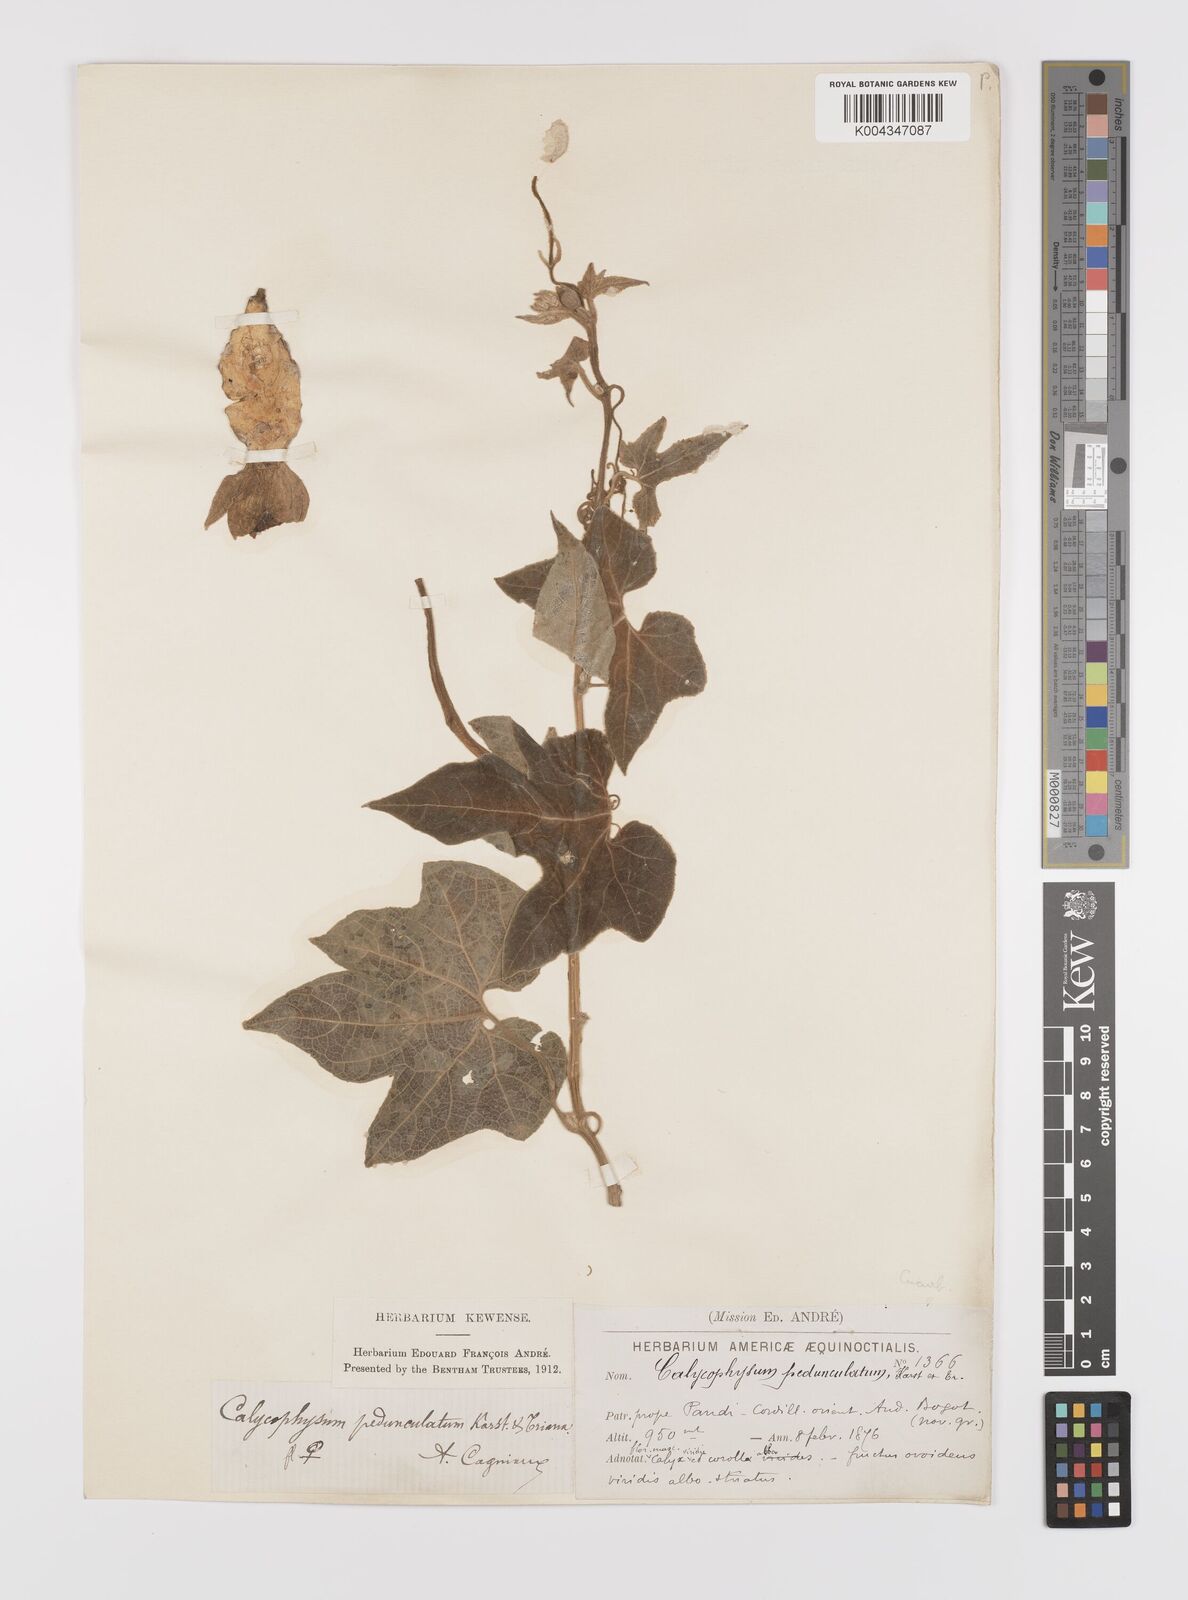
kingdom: Plantae
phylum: Tracheophyta
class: Magnoliopsida
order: Cucurbitales
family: Cucurbitaceae
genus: Calycophysum
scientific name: Calycophysum pedunculatum
